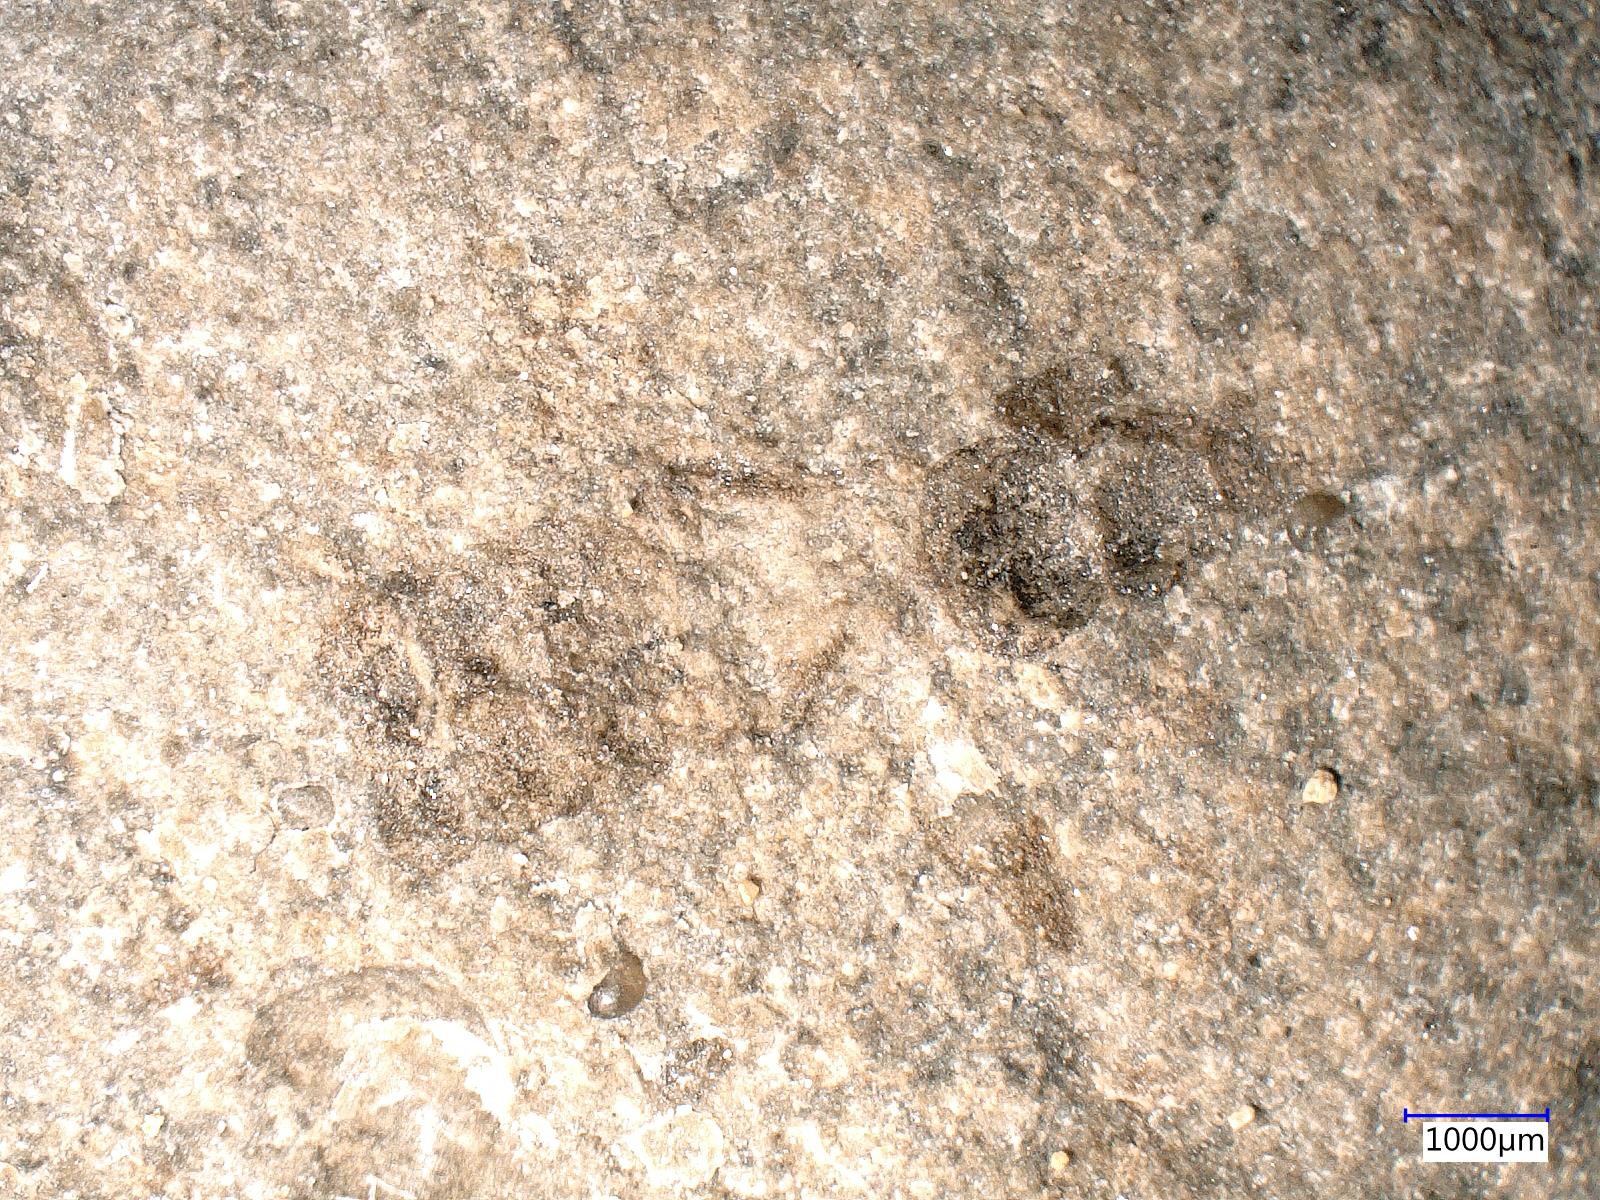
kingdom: Animalia
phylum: Arthropoda
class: Insecta
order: Dermaptera
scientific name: Dermaptera
